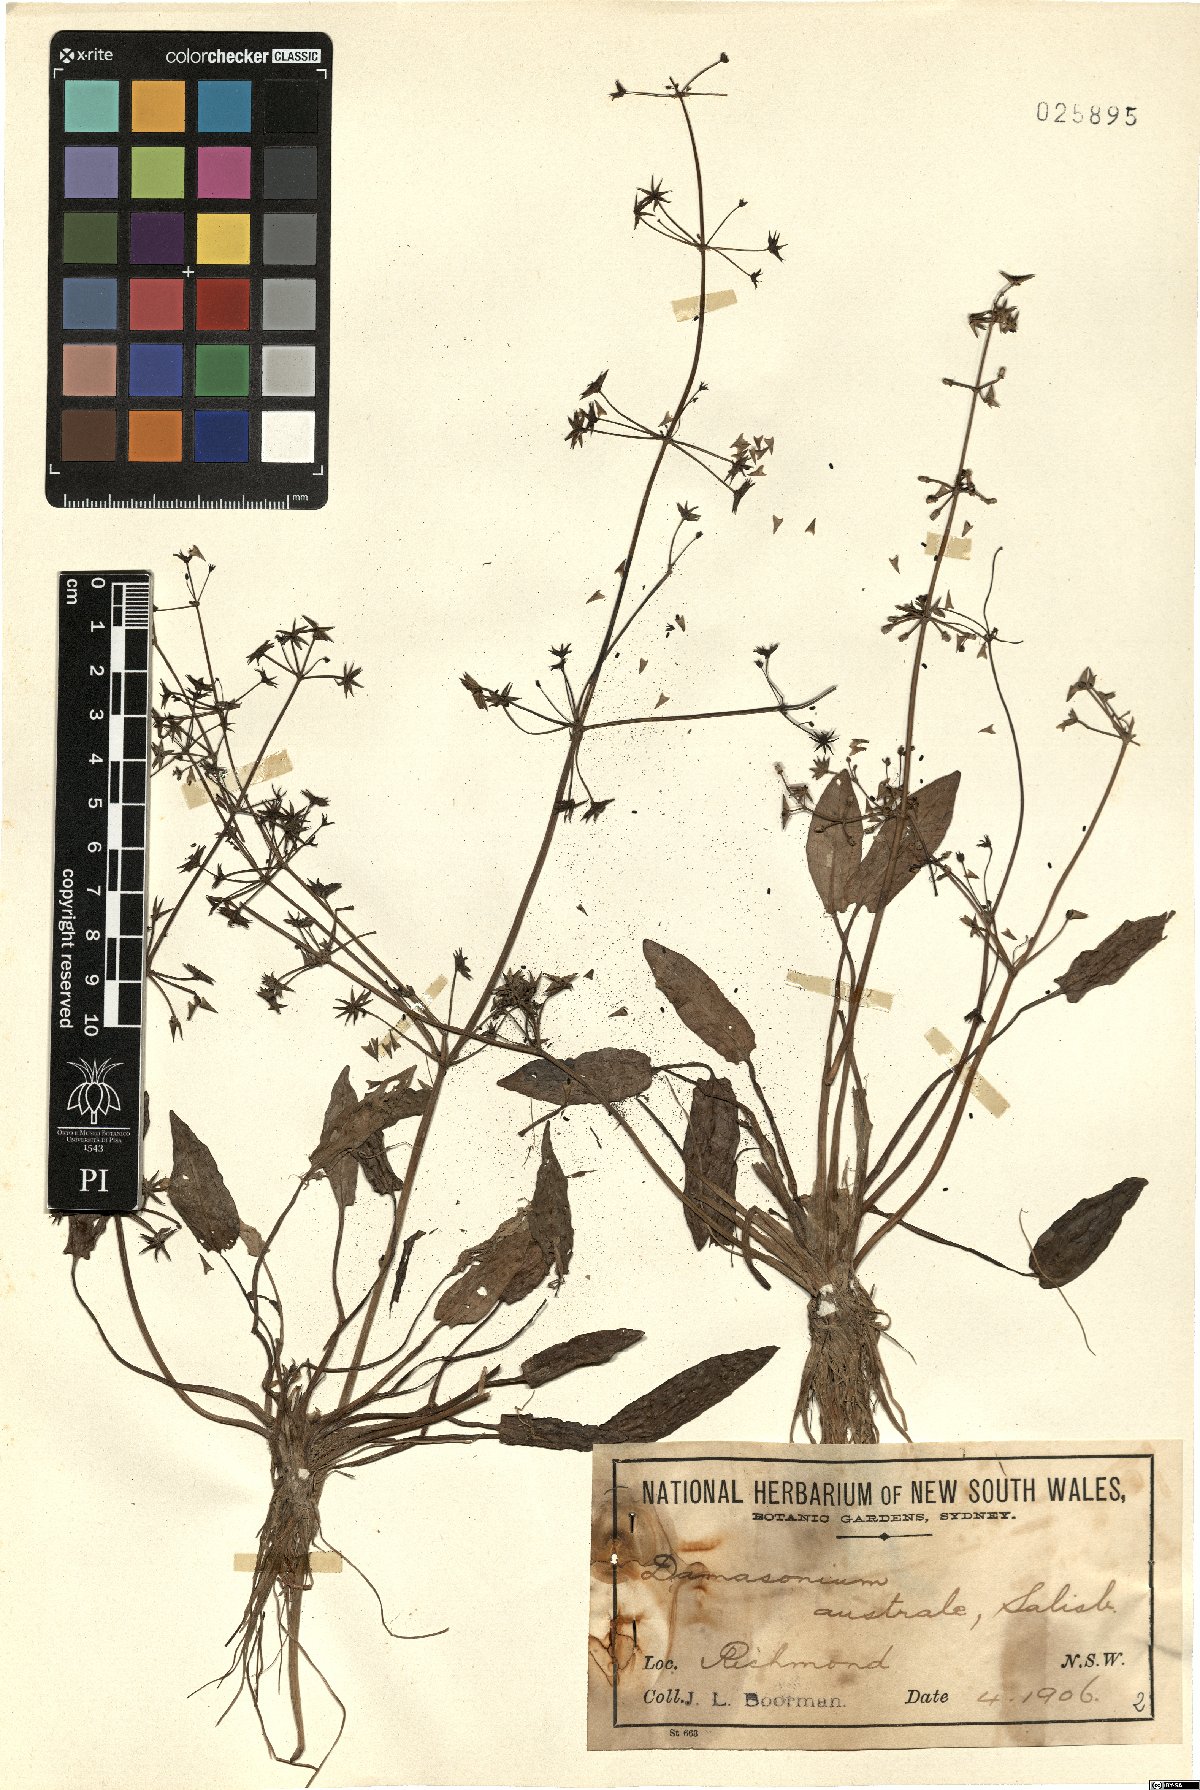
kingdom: Plantae
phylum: Tracheophyta
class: Liliopsida
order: Alismatales
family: Alismataceae
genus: Damasonium
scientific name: Damasonium minus
